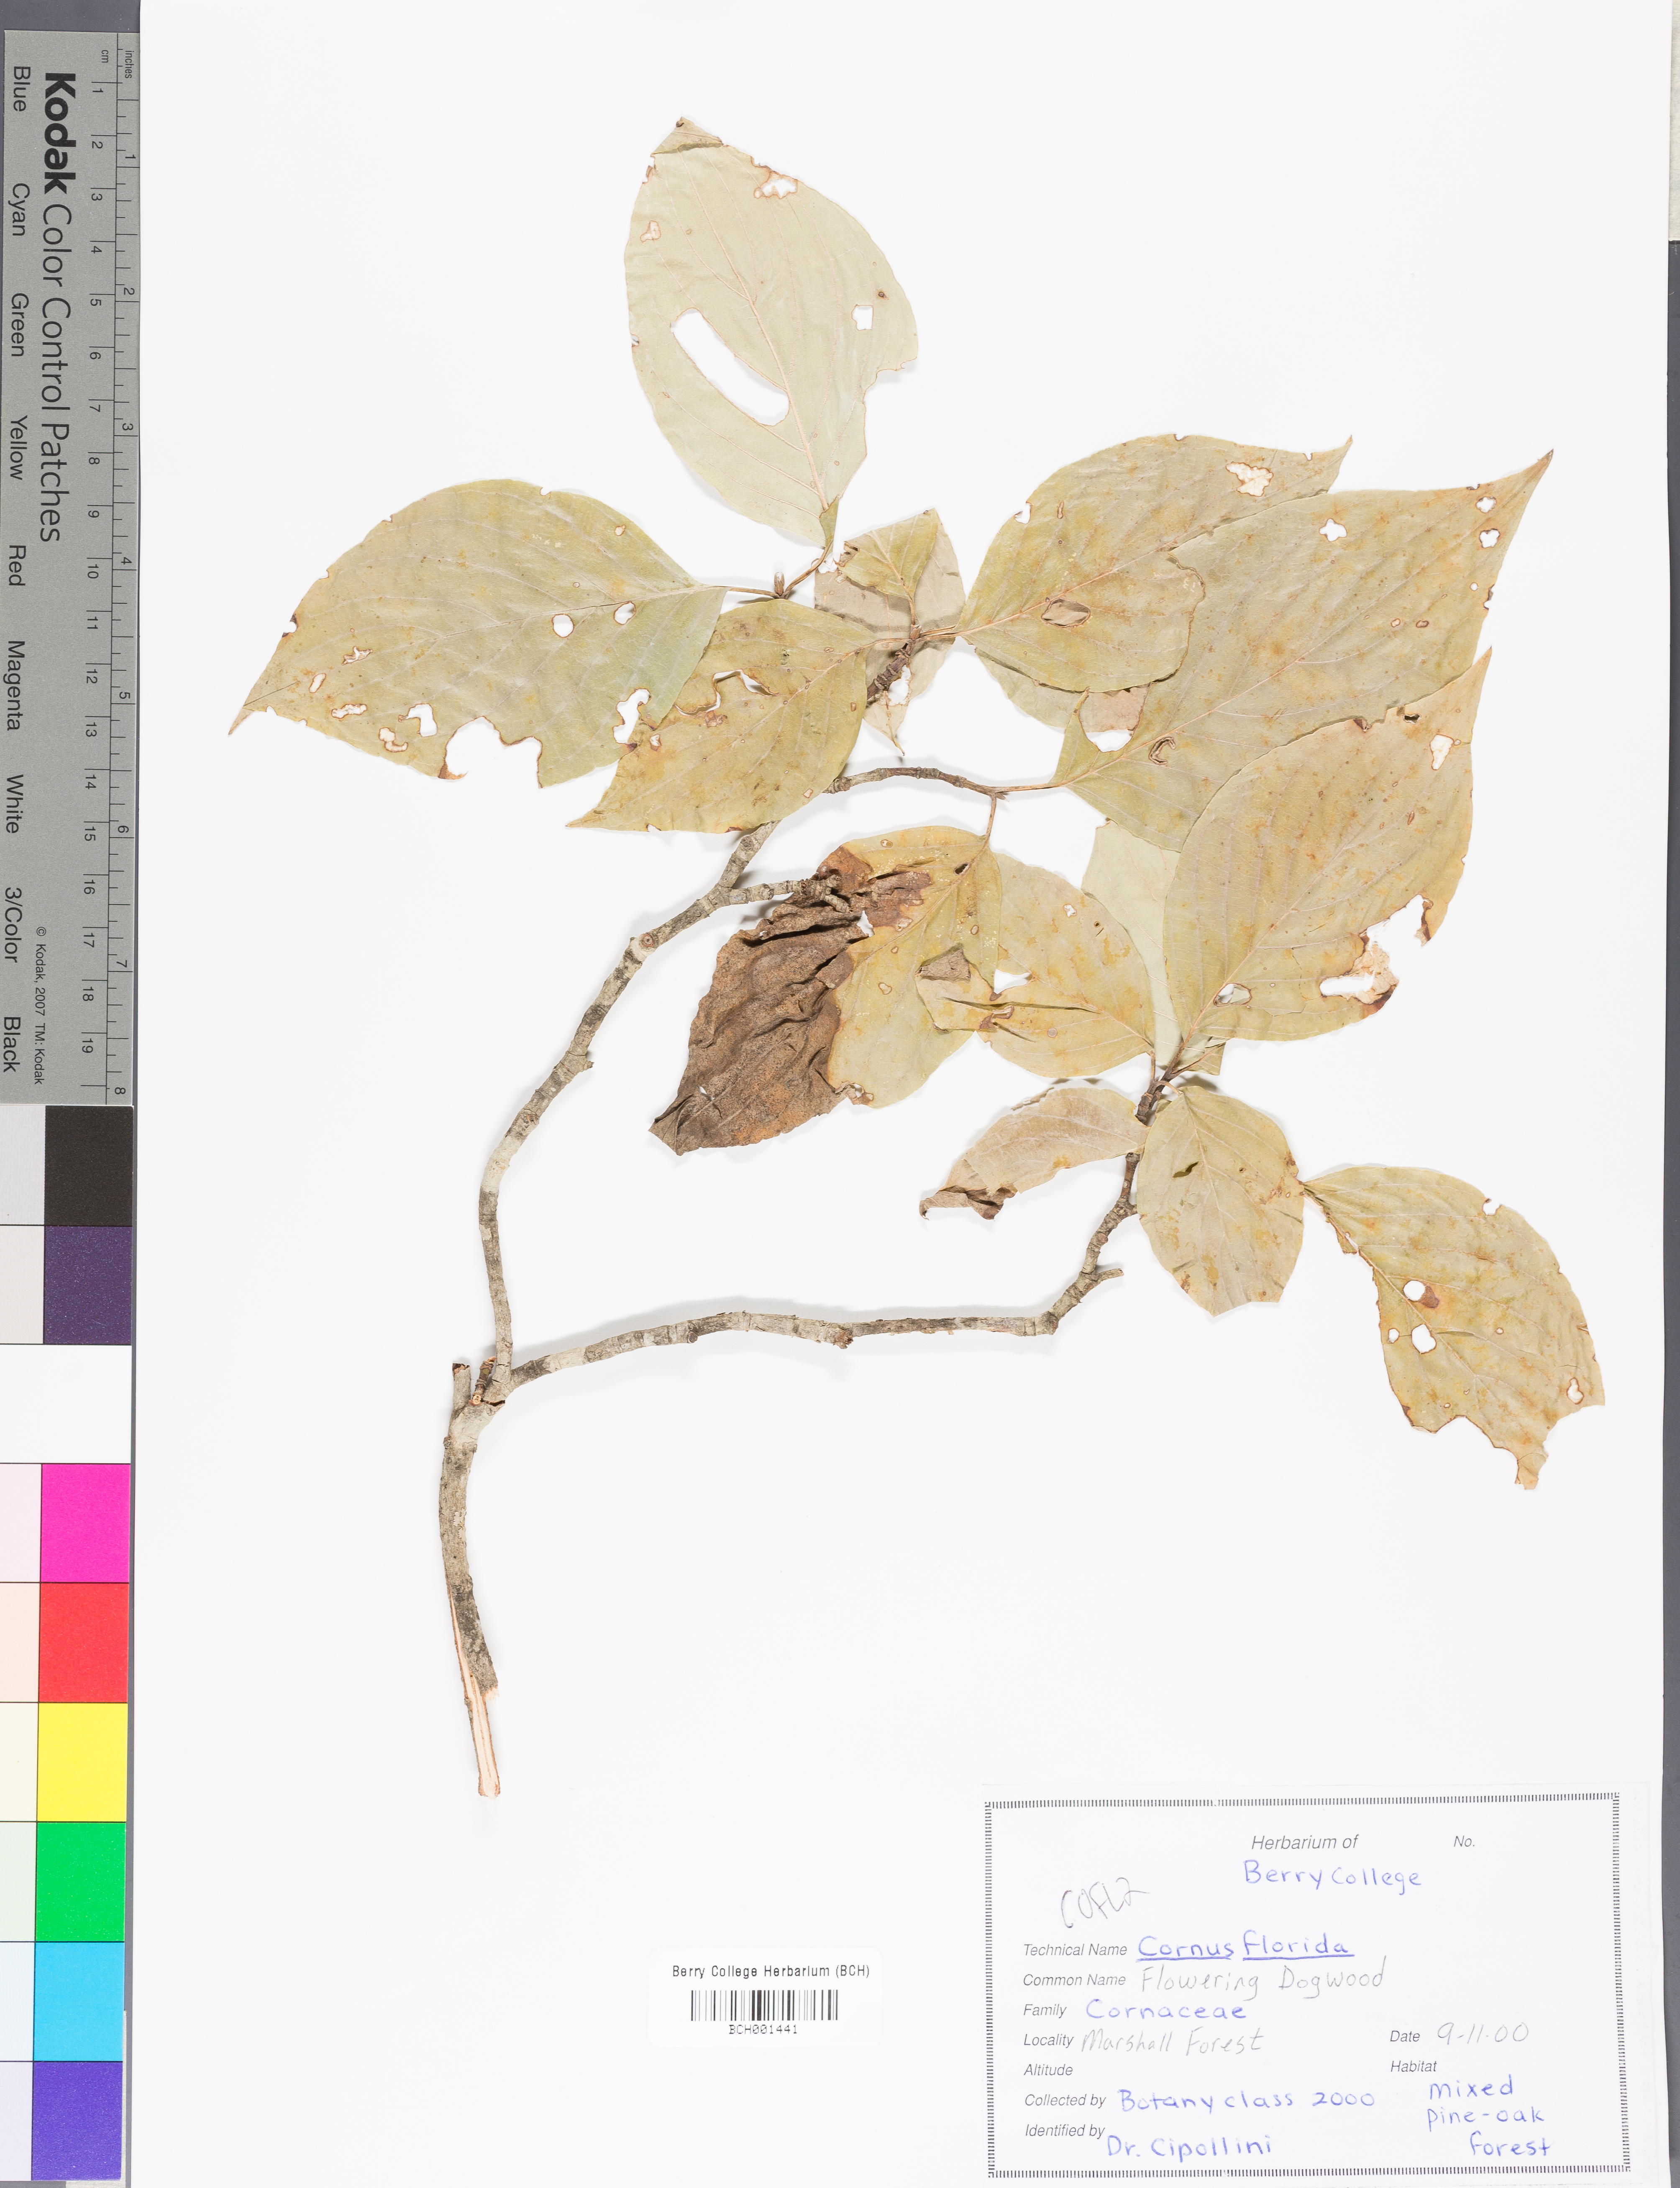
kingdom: Plantae
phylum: Tracheophyta
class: Magnoliopsida
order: Cornales
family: Cornaceae
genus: Cornus
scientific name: Cornus florida
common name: Flowering dogwood
